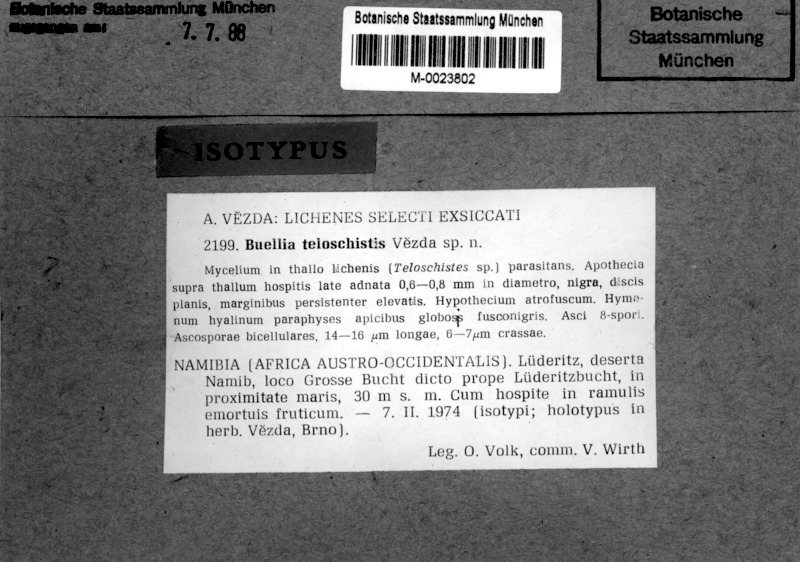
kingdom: Fungi
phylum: Ascomycota
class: Lecanoromycetes
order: Caliciales
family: Caliciaceae
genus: Buellia
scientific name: Buellia
